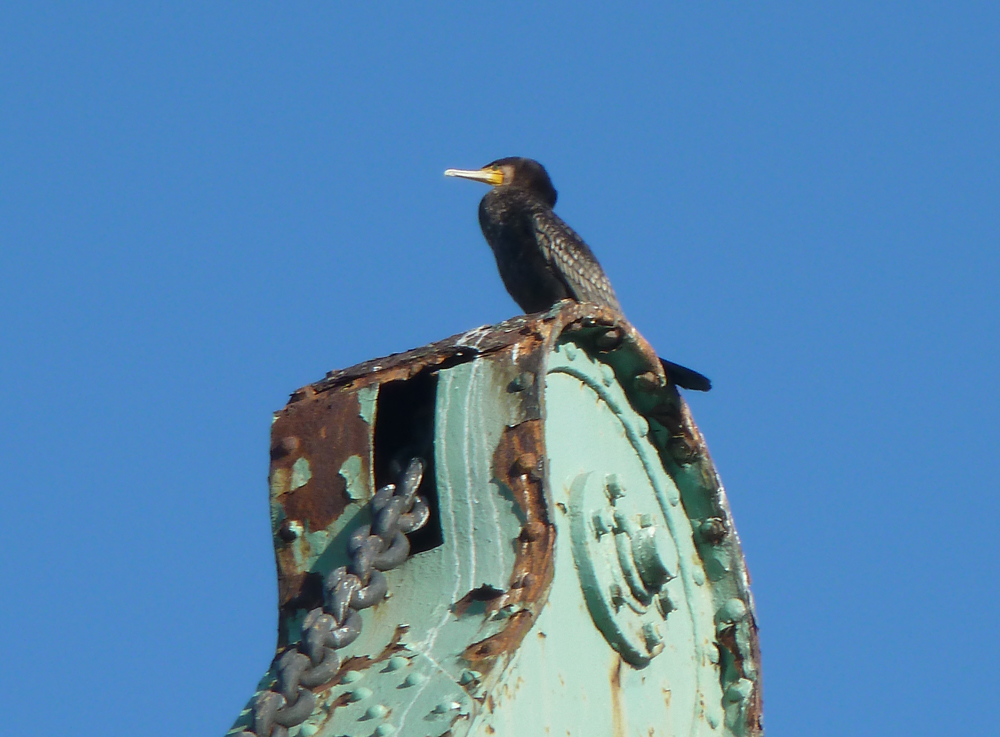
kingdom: Animalia
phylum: Chordata
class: Aves
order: Suliformes
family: Phalacrocoracidae
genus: Phalacrocorax
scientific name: Phalacrocorax carbo
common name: Great cormorant
